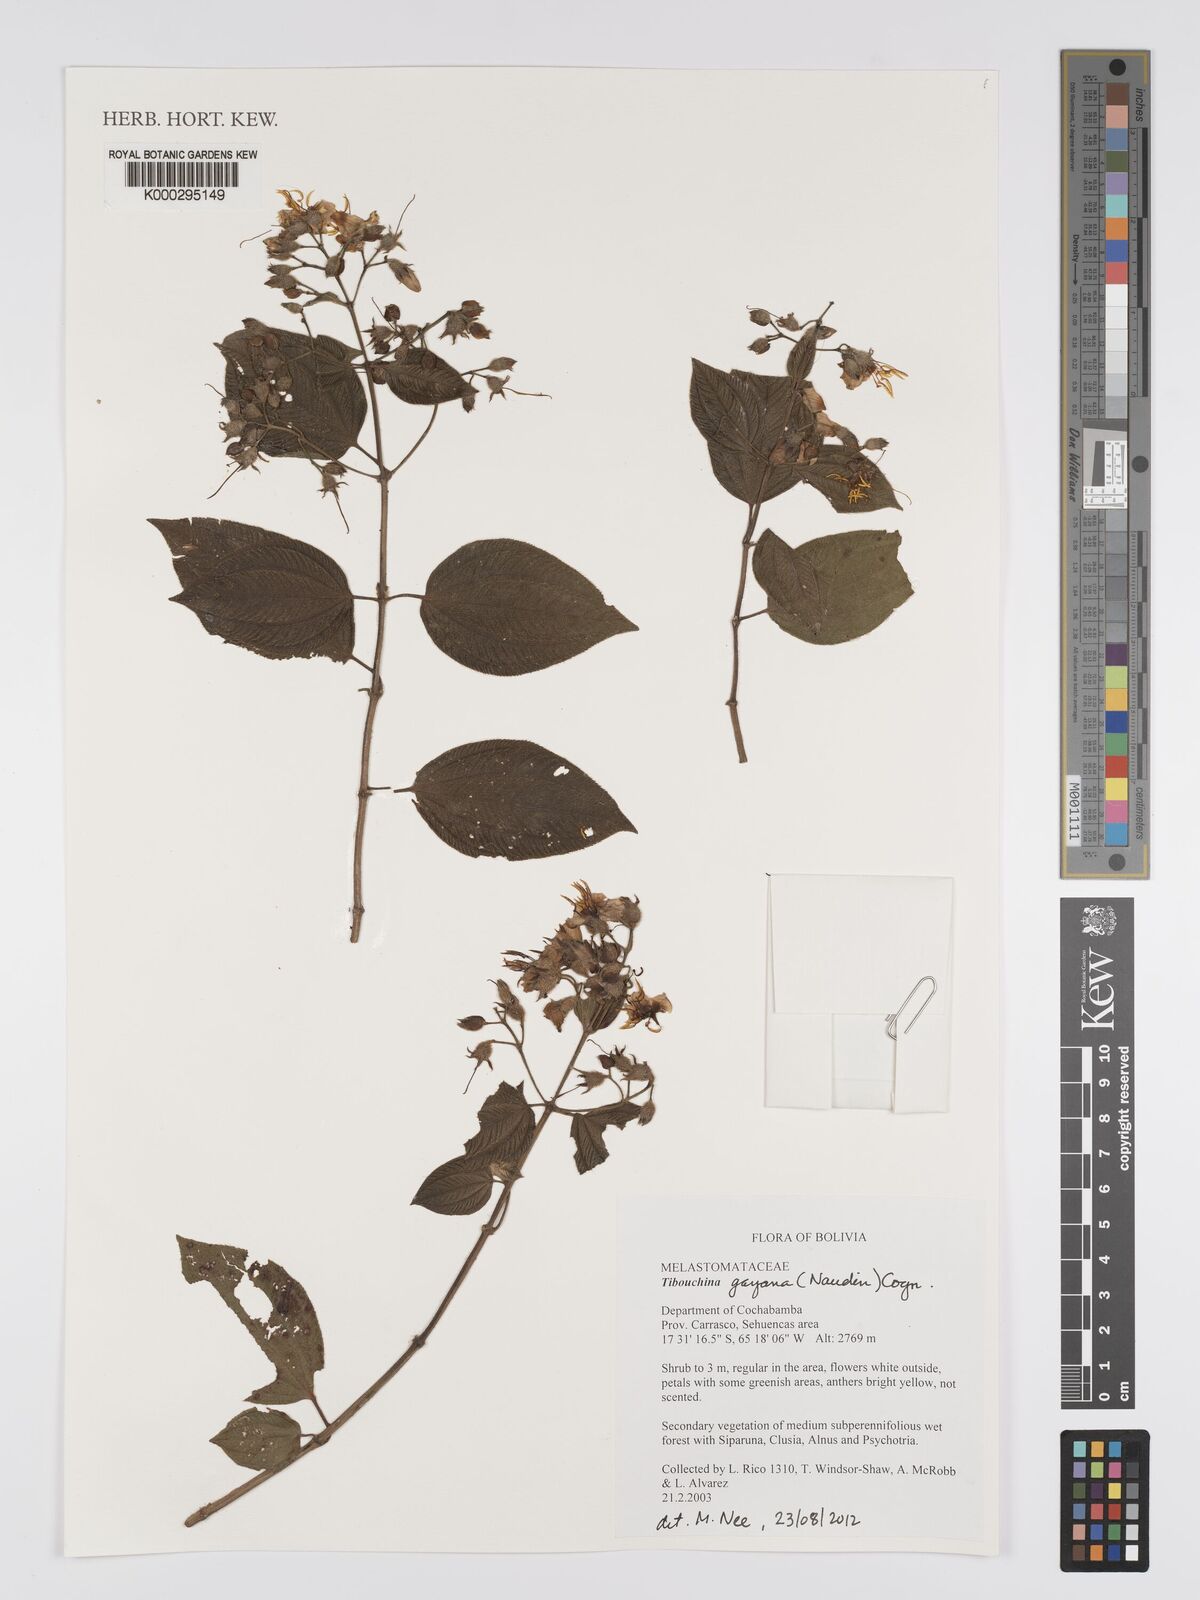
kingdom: Plantae
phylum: Tracheophyta
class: Magnoliopsida
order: Myrtales
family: Melastomataceae
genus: Chaetogastra
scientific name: Chaetogastra gayana
